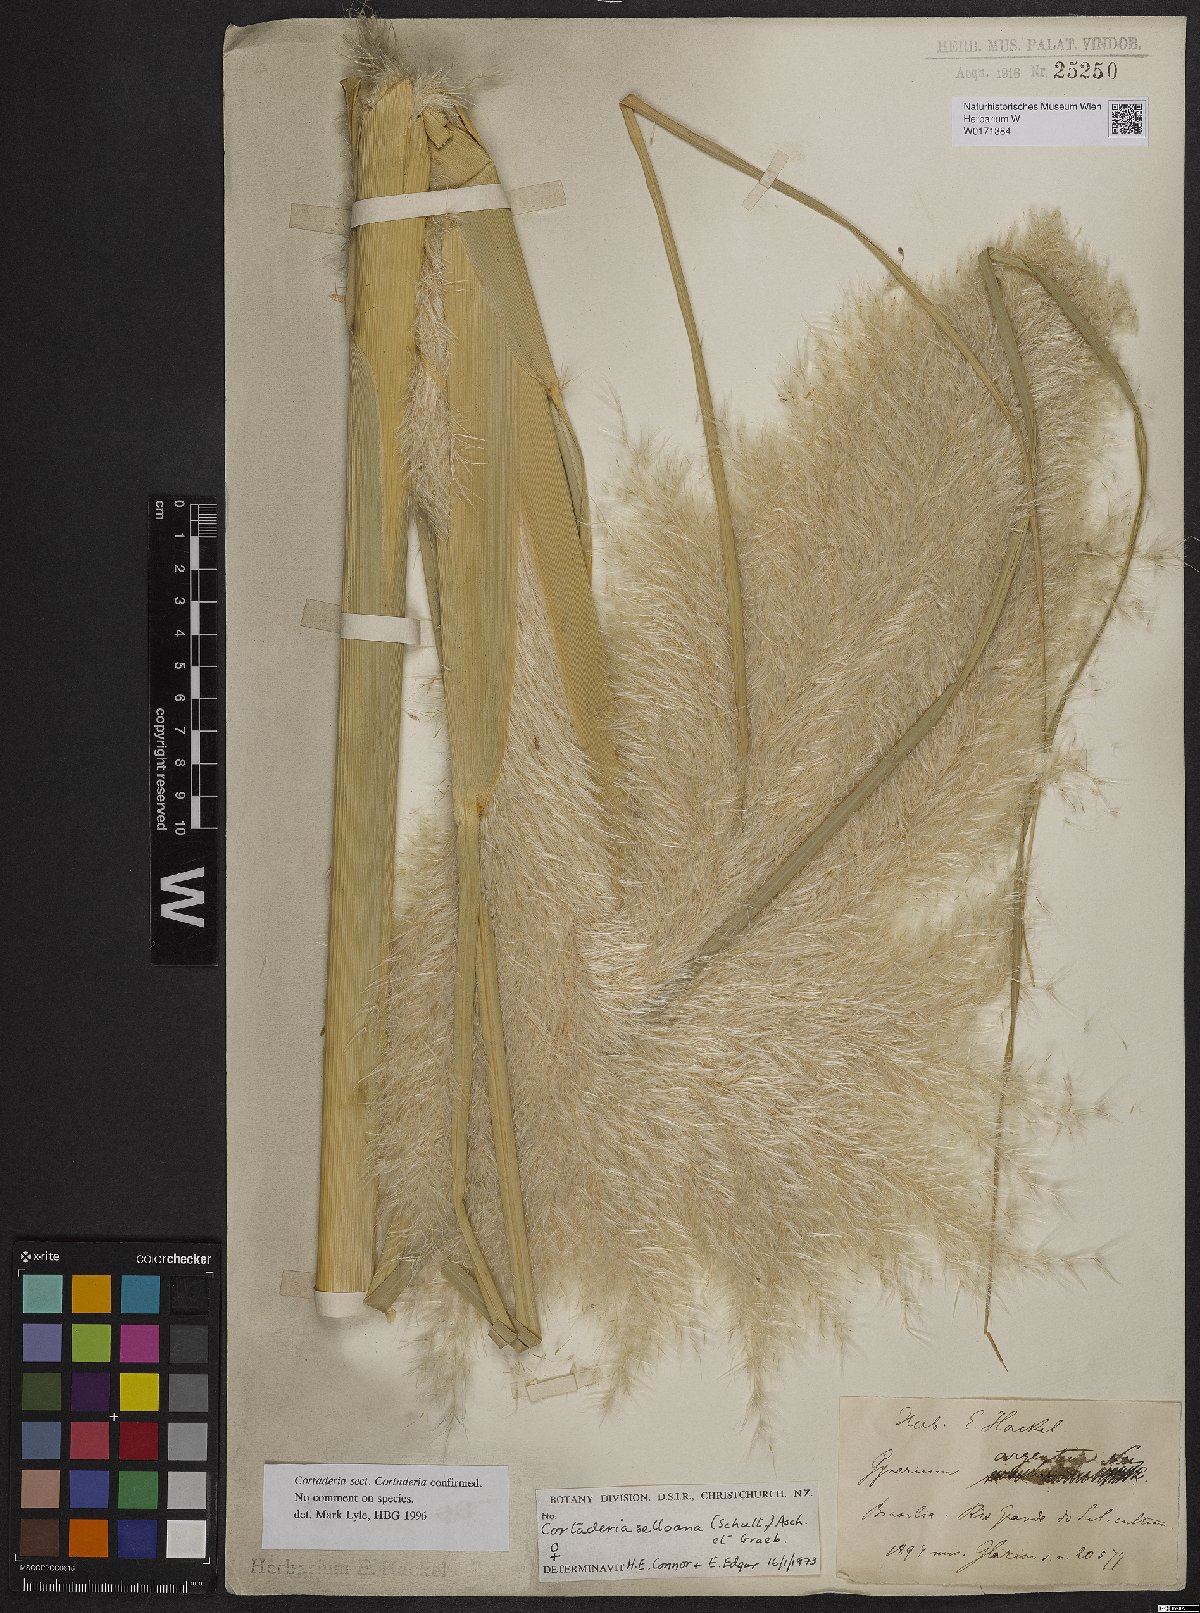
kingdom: Plantae
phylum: Tracheophyta
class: Liliopsida
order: Poales
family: Poaceae
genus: Cortaderia
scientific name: Cortaderia selloana
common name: Uruguayan pampas grass
